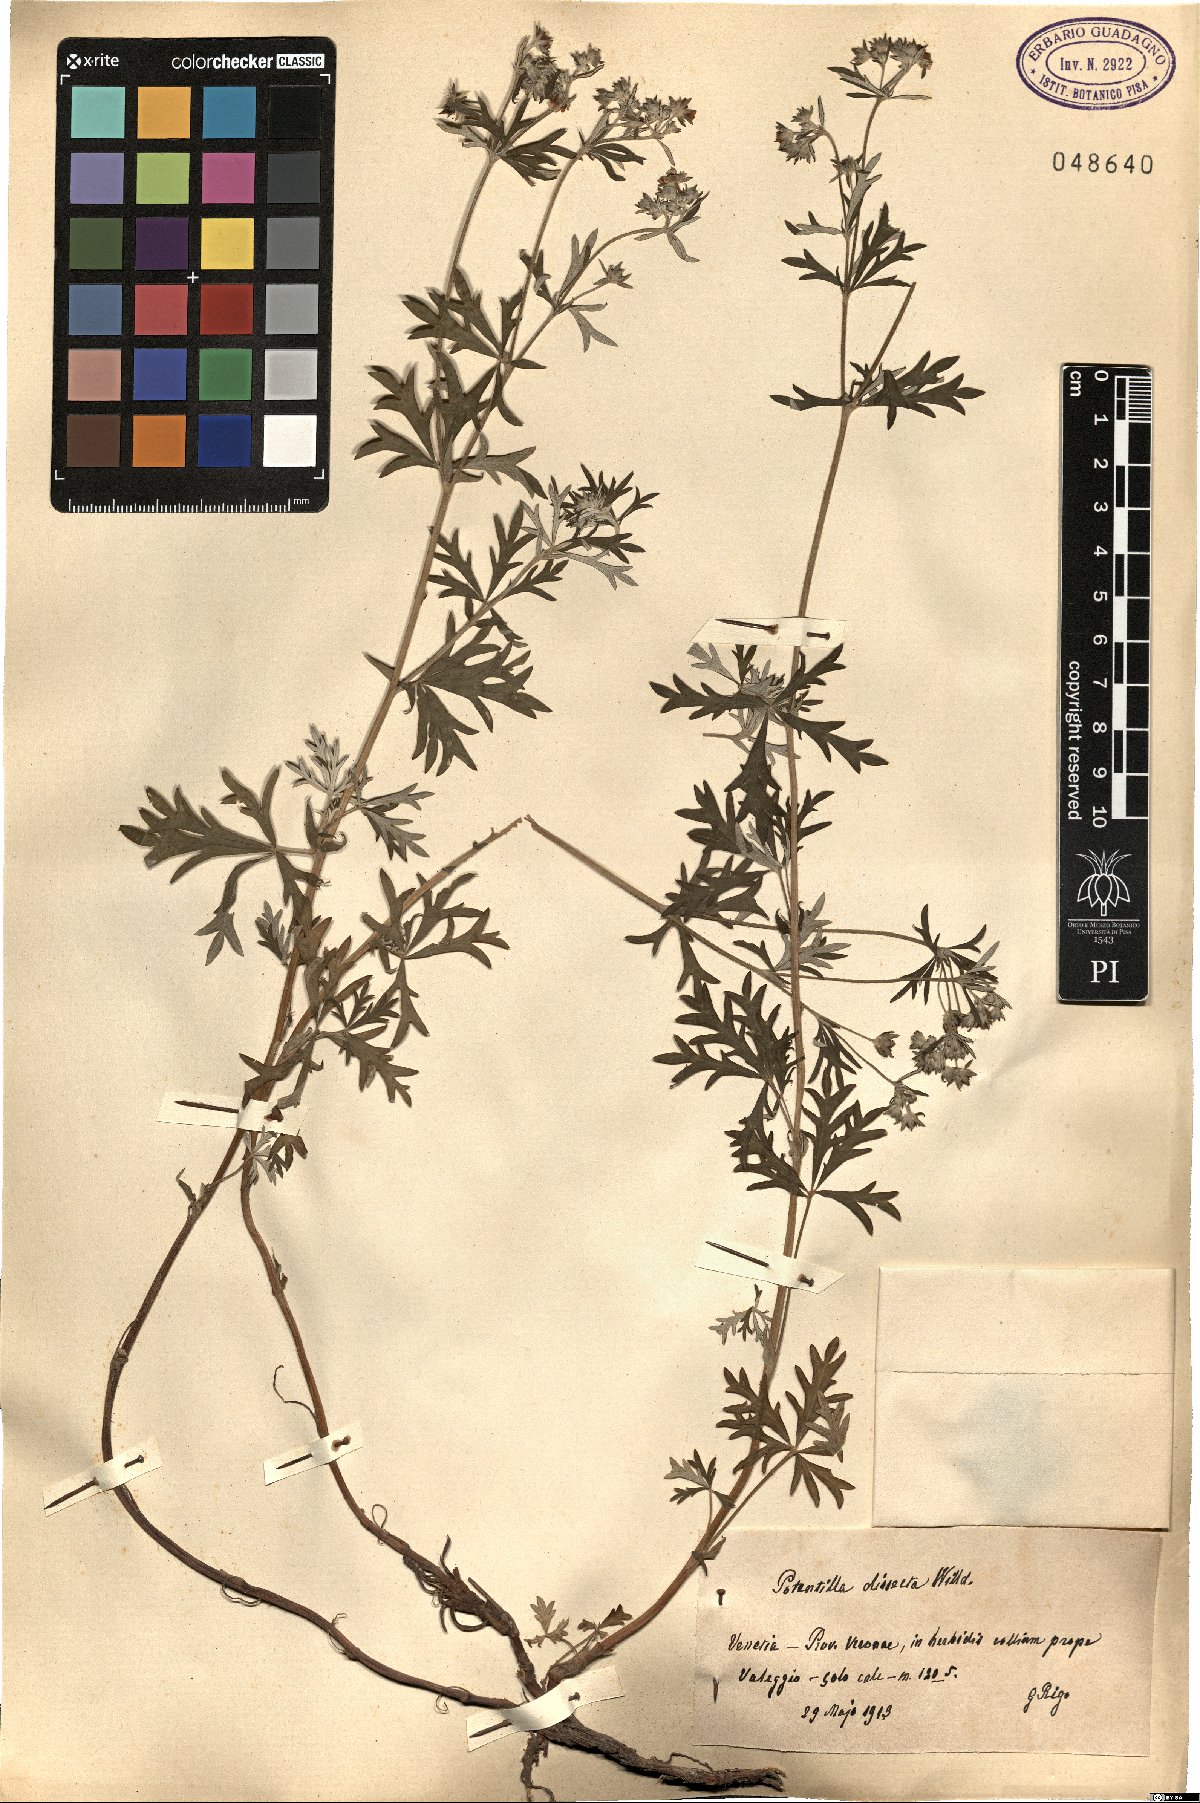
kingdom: Plantae
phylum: Tracheophyta
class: Magnoliopsida
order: Rosales
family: Rosaceae
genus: Potentilla
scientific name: Potentilla neglecta
